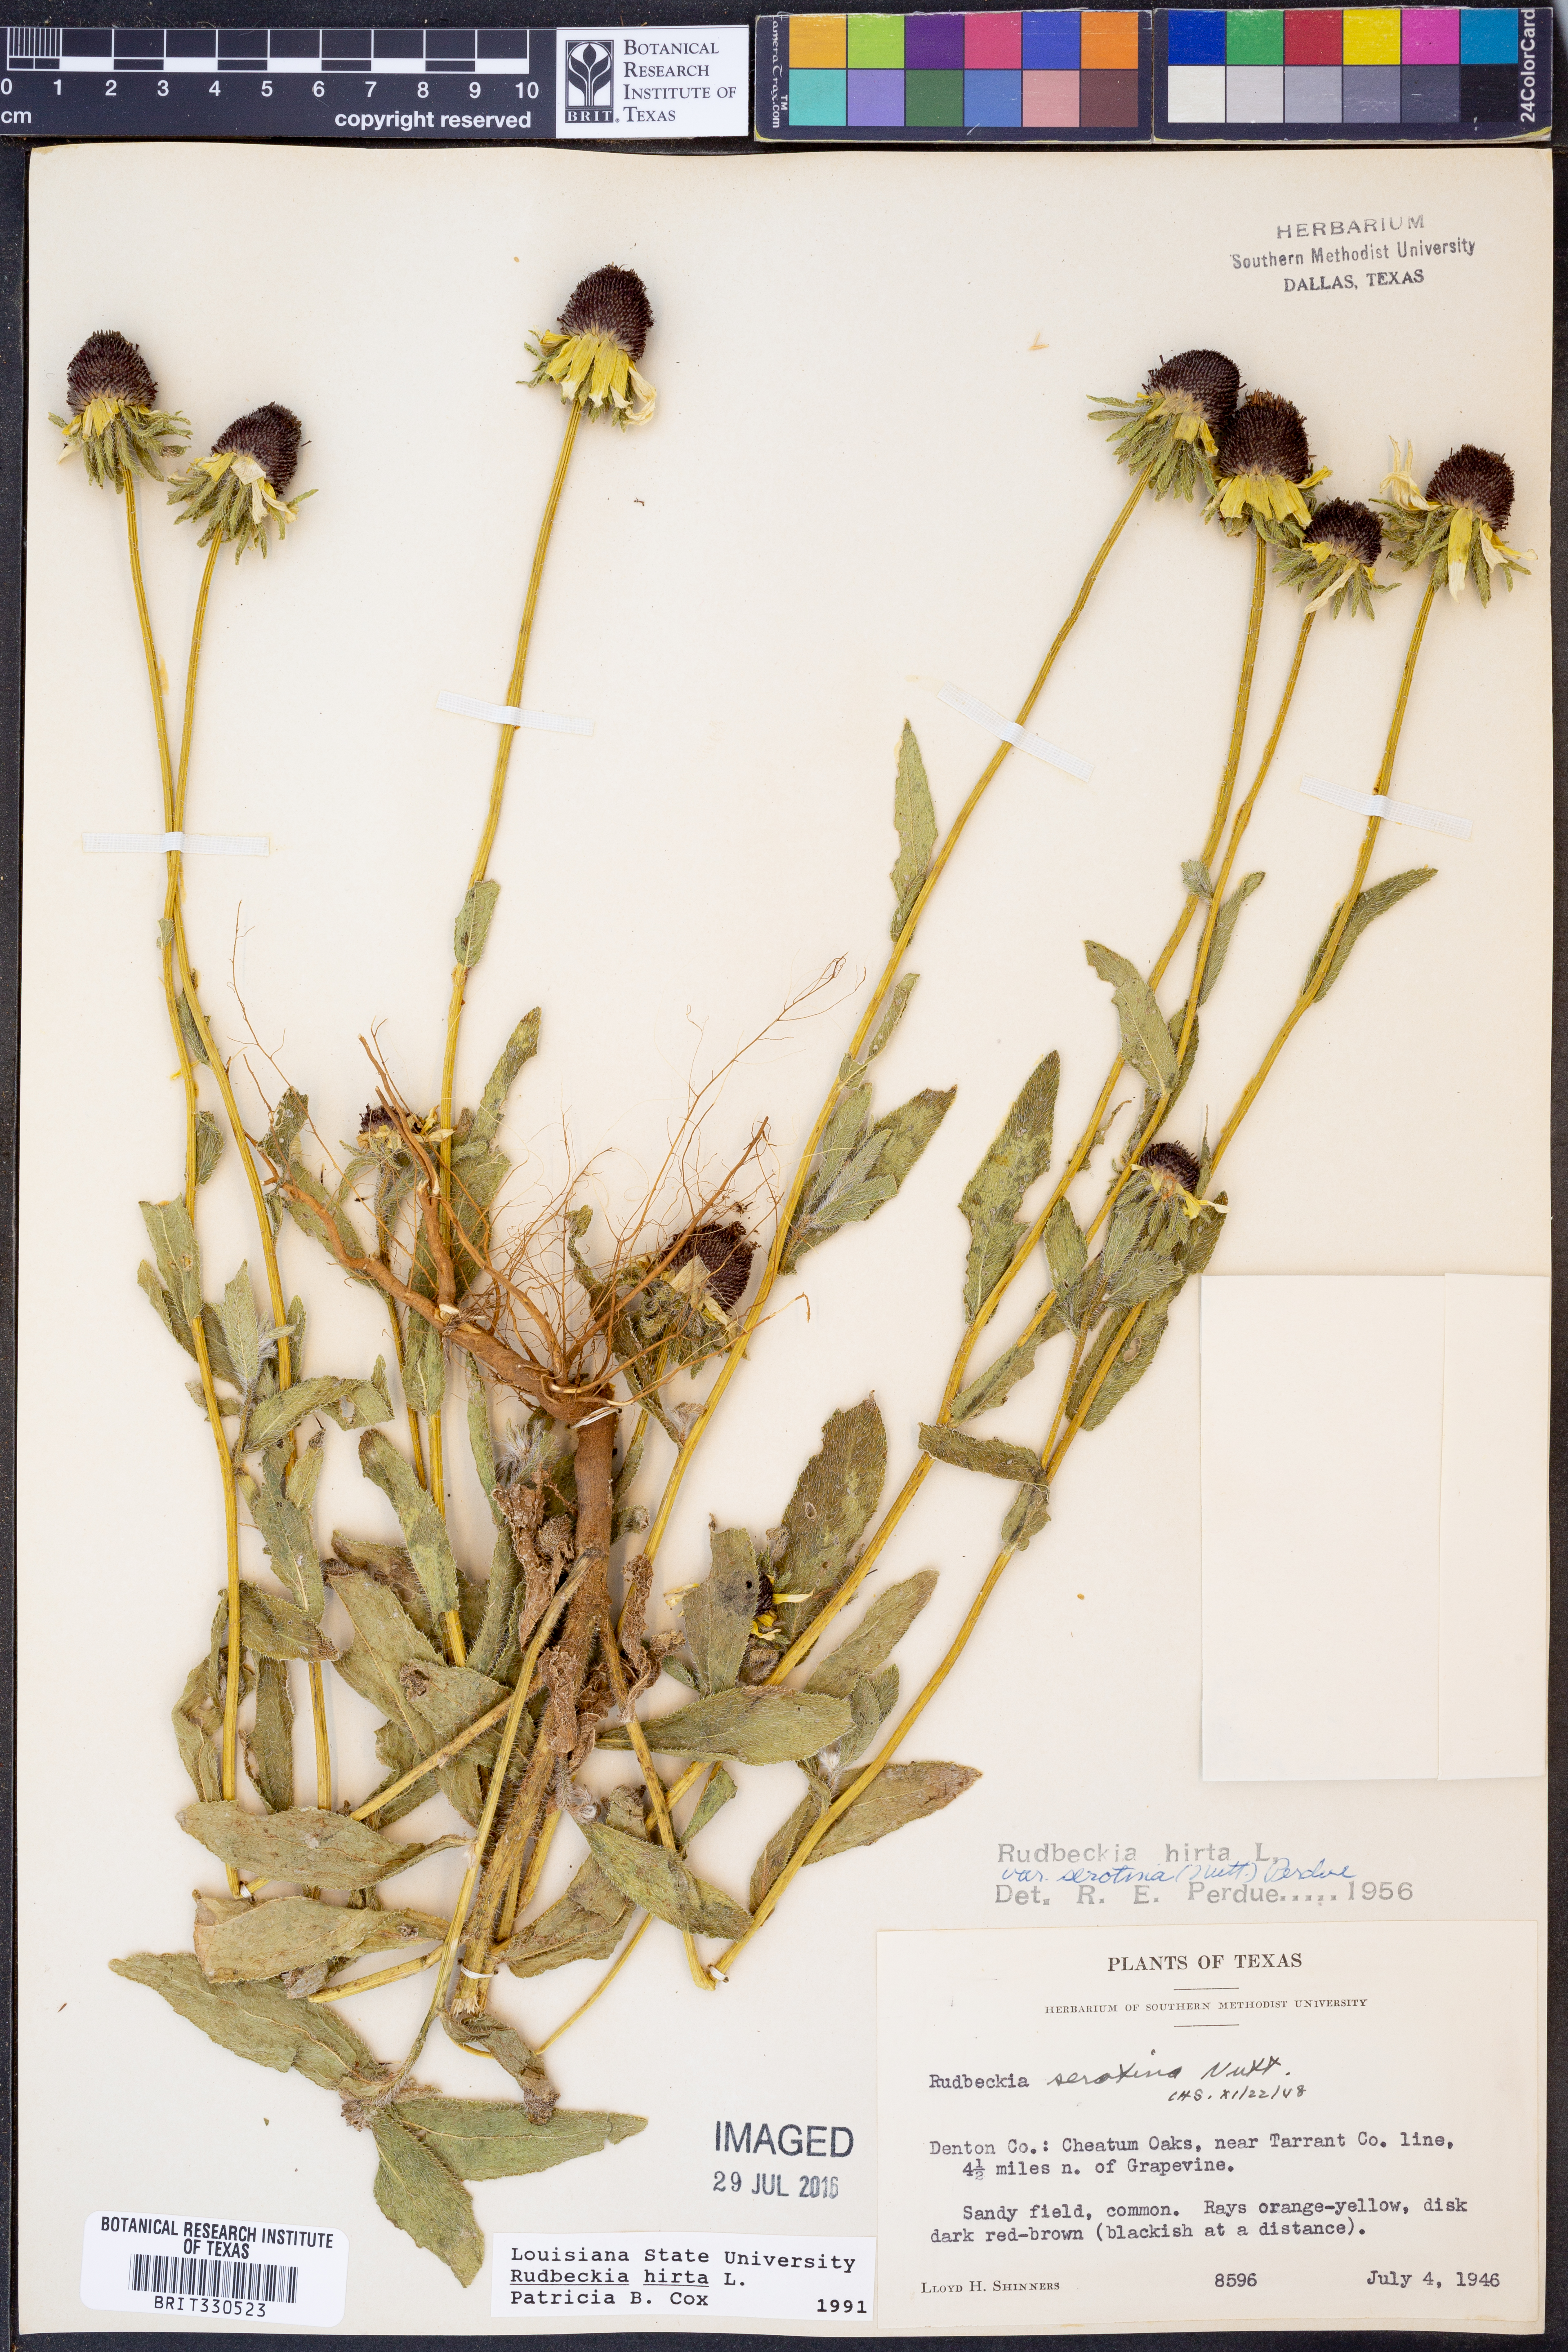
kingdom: Plantae
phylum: Tracheophyta
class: Magnoliopsida
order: Asterales
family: Asteraceae
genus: Rudbeckia
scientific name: Rudbeckia hirta
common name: Black-eyed-susan
